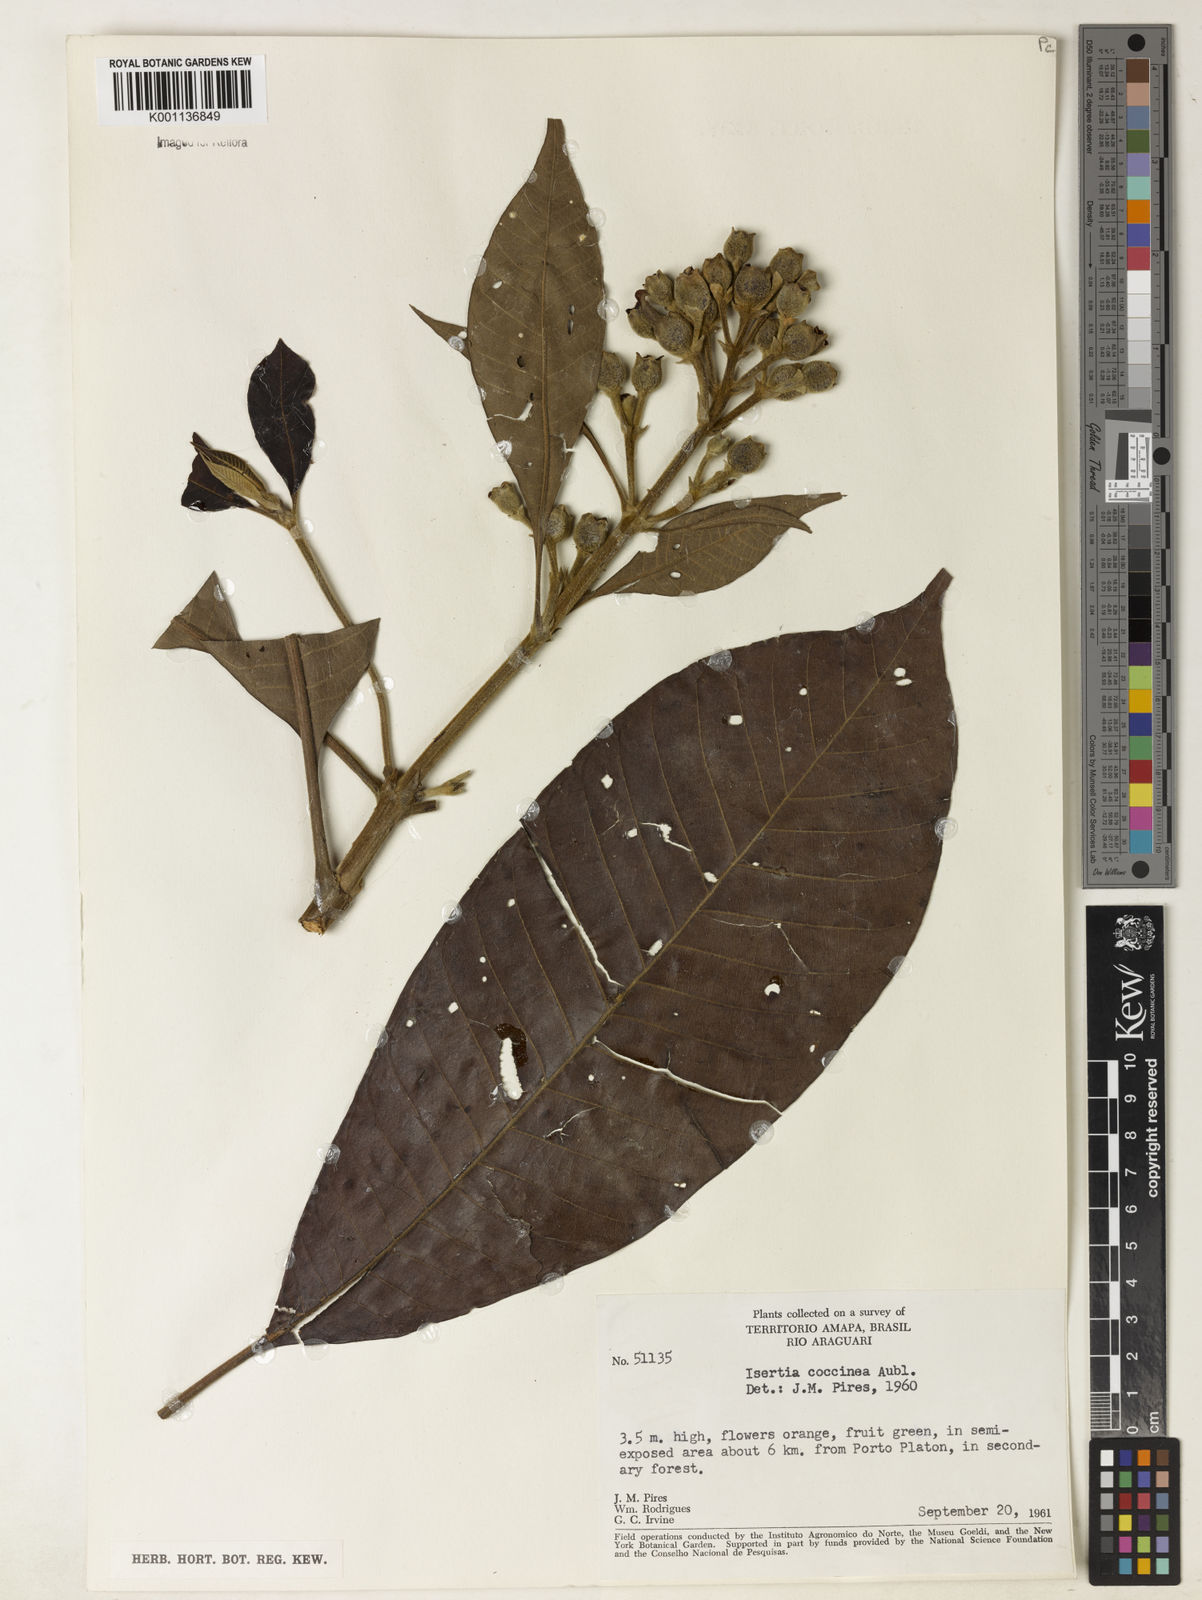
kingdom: Plantae
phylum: Tracheophyta
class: Magnoliopsida
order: Gentianales
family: Rubiaceae
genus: Isertia
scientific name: Isertia coccinea
